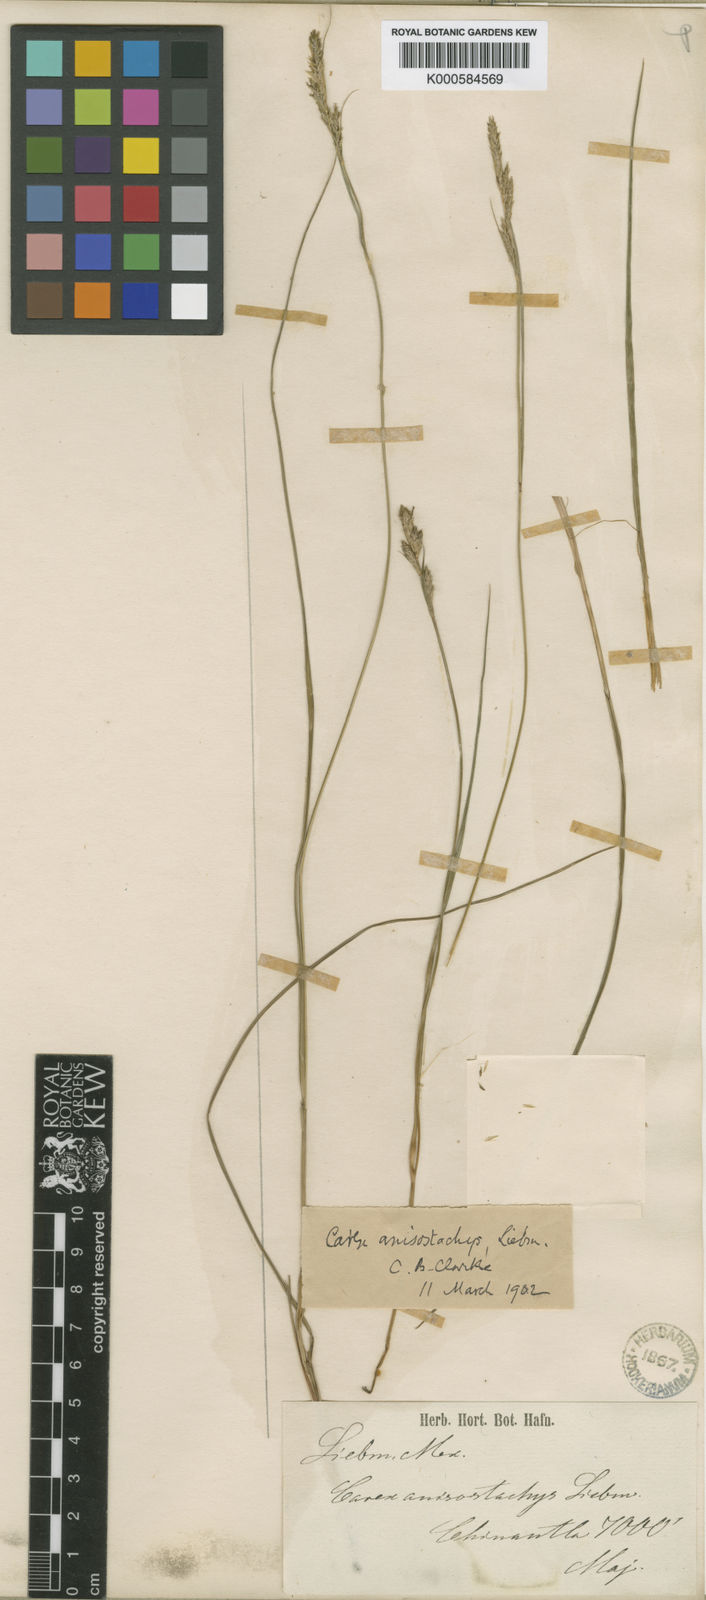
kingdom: Plantae
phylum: Tracheophyta
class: Liliopsida
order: Poales
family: Cyperaceae
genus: Carex
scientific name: Carex anisostachys
